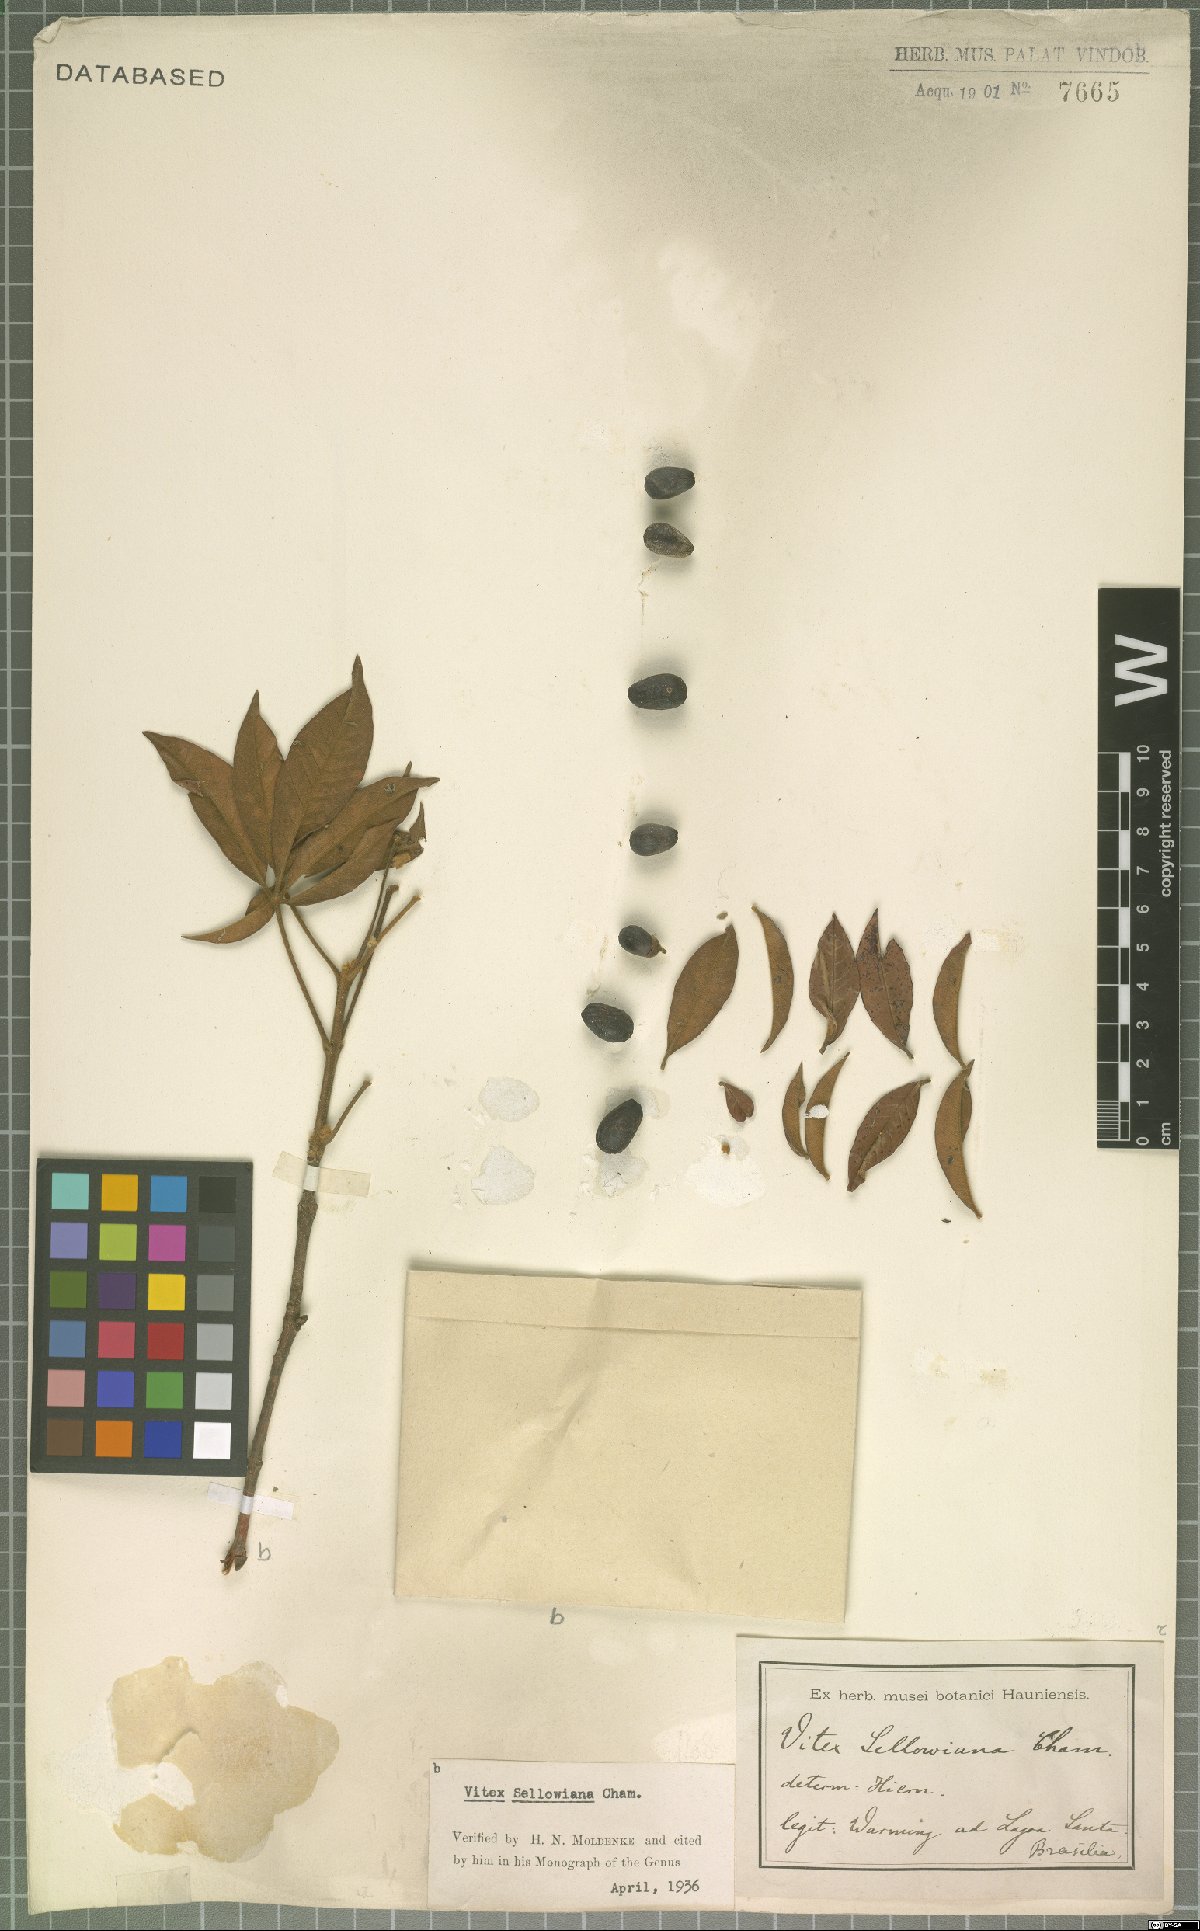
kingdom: Plantae
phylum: Tracheophyta
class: Magnoliopsida
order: Lamiales
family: Lamiaceae
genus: Vitex
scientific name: Vitex sellowiana
